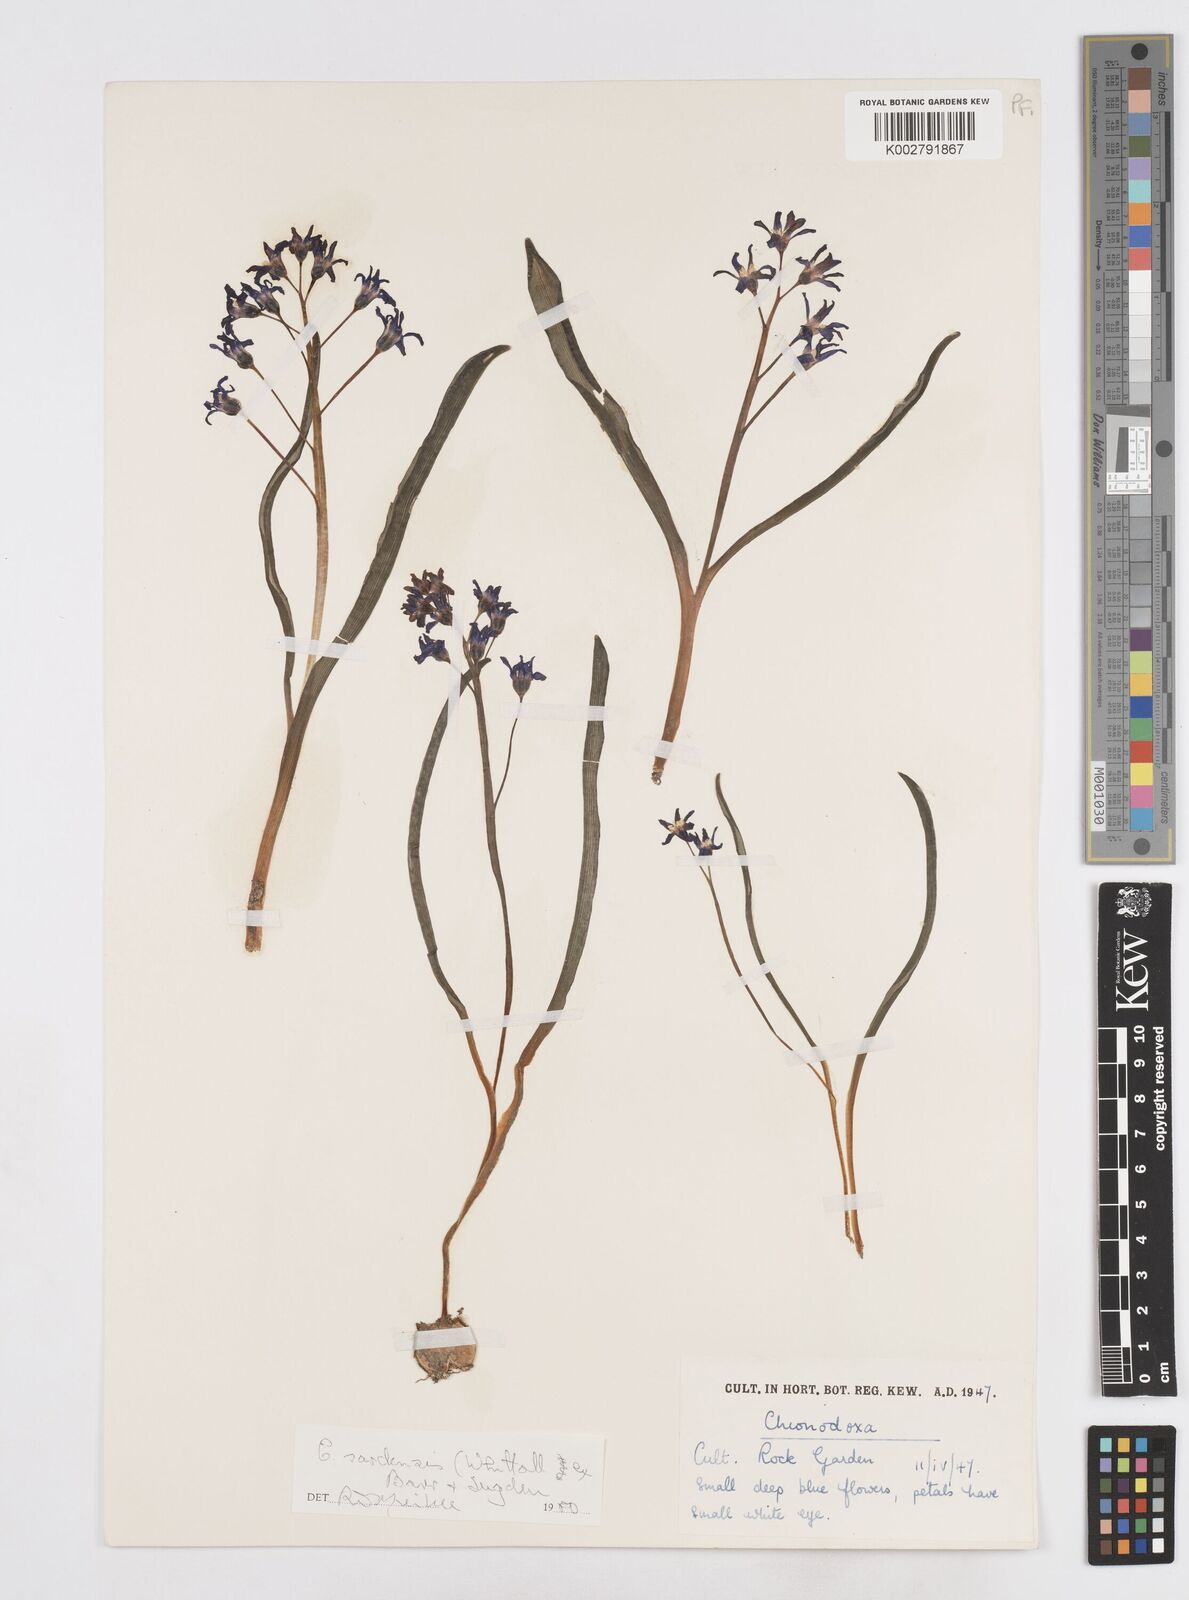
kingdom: Plantae
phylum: Tracheophyta
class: Liliopsida
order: Asparagales
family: Asparagaceae
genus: Scilla
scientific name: Scilla sardensis
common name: Lesser glory-of-the-snow
